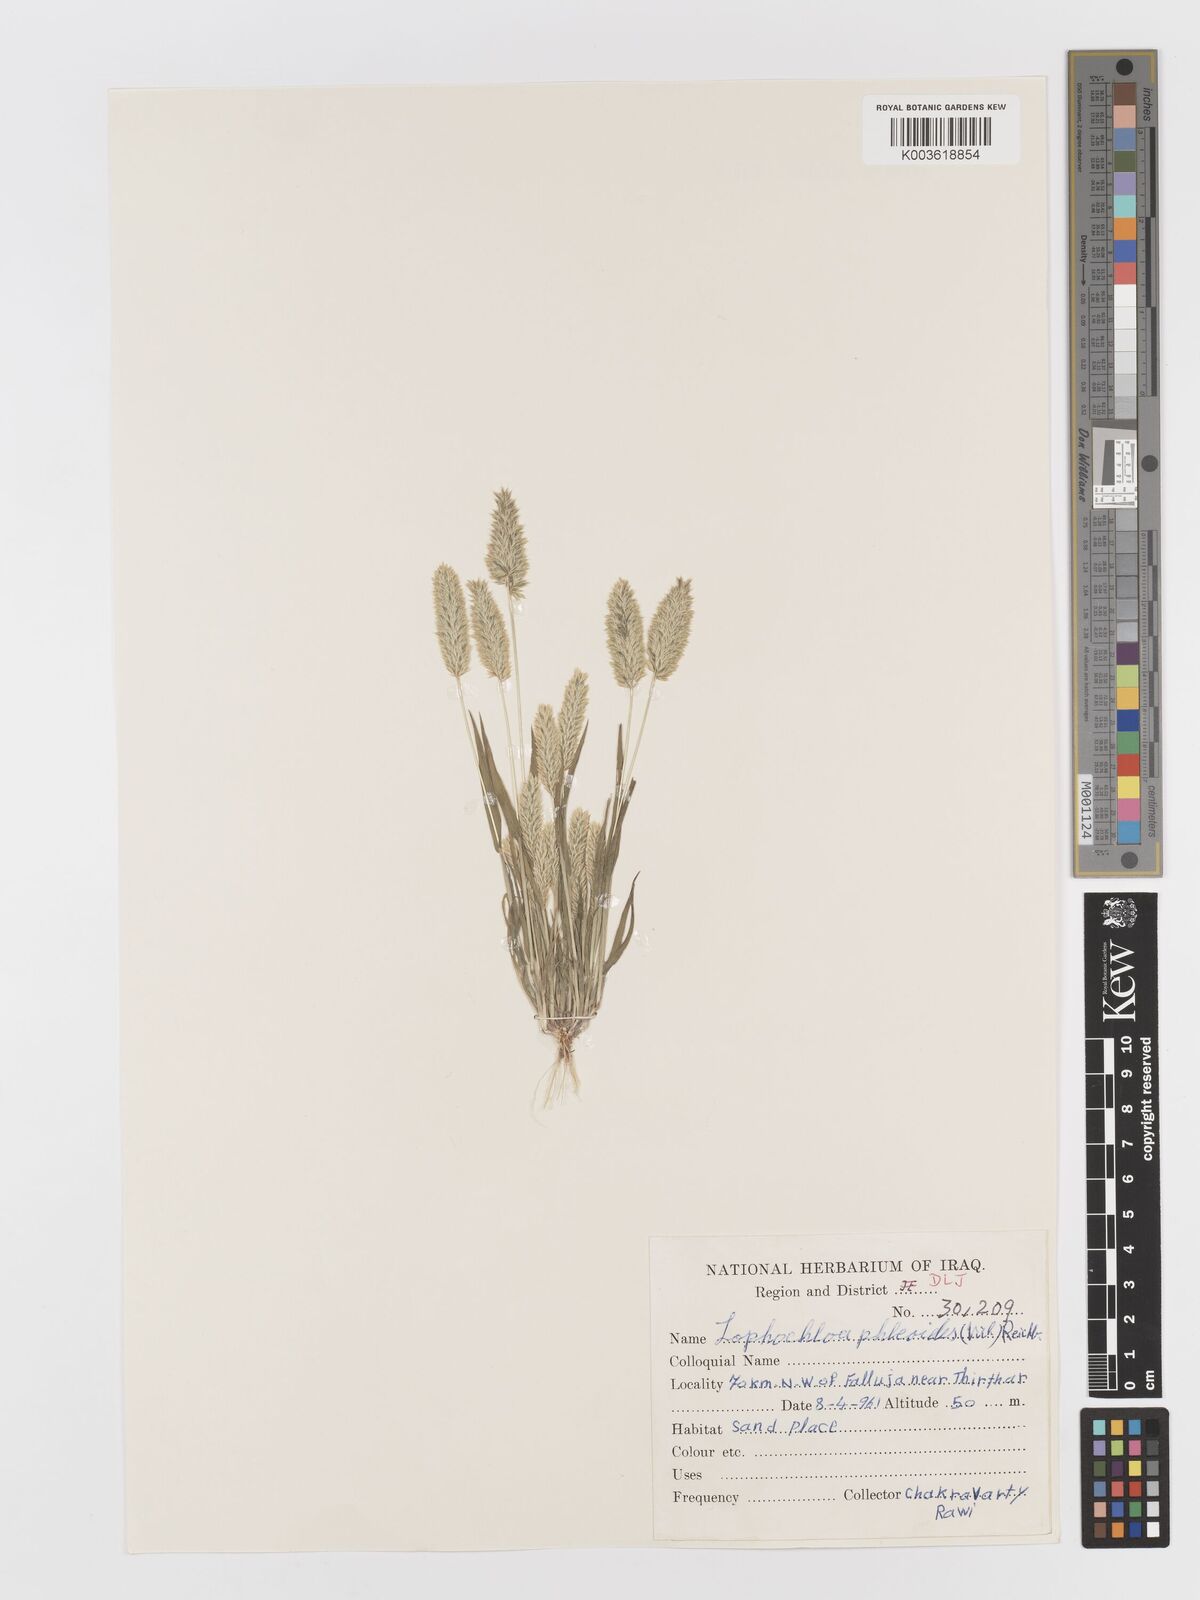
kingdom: Plantae
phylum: Tracheophyta
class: Liliopsida
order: Poales
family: Poaceae
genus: Rostraria
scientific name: Rostraria cristata
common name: Mediterranean hair-grass
